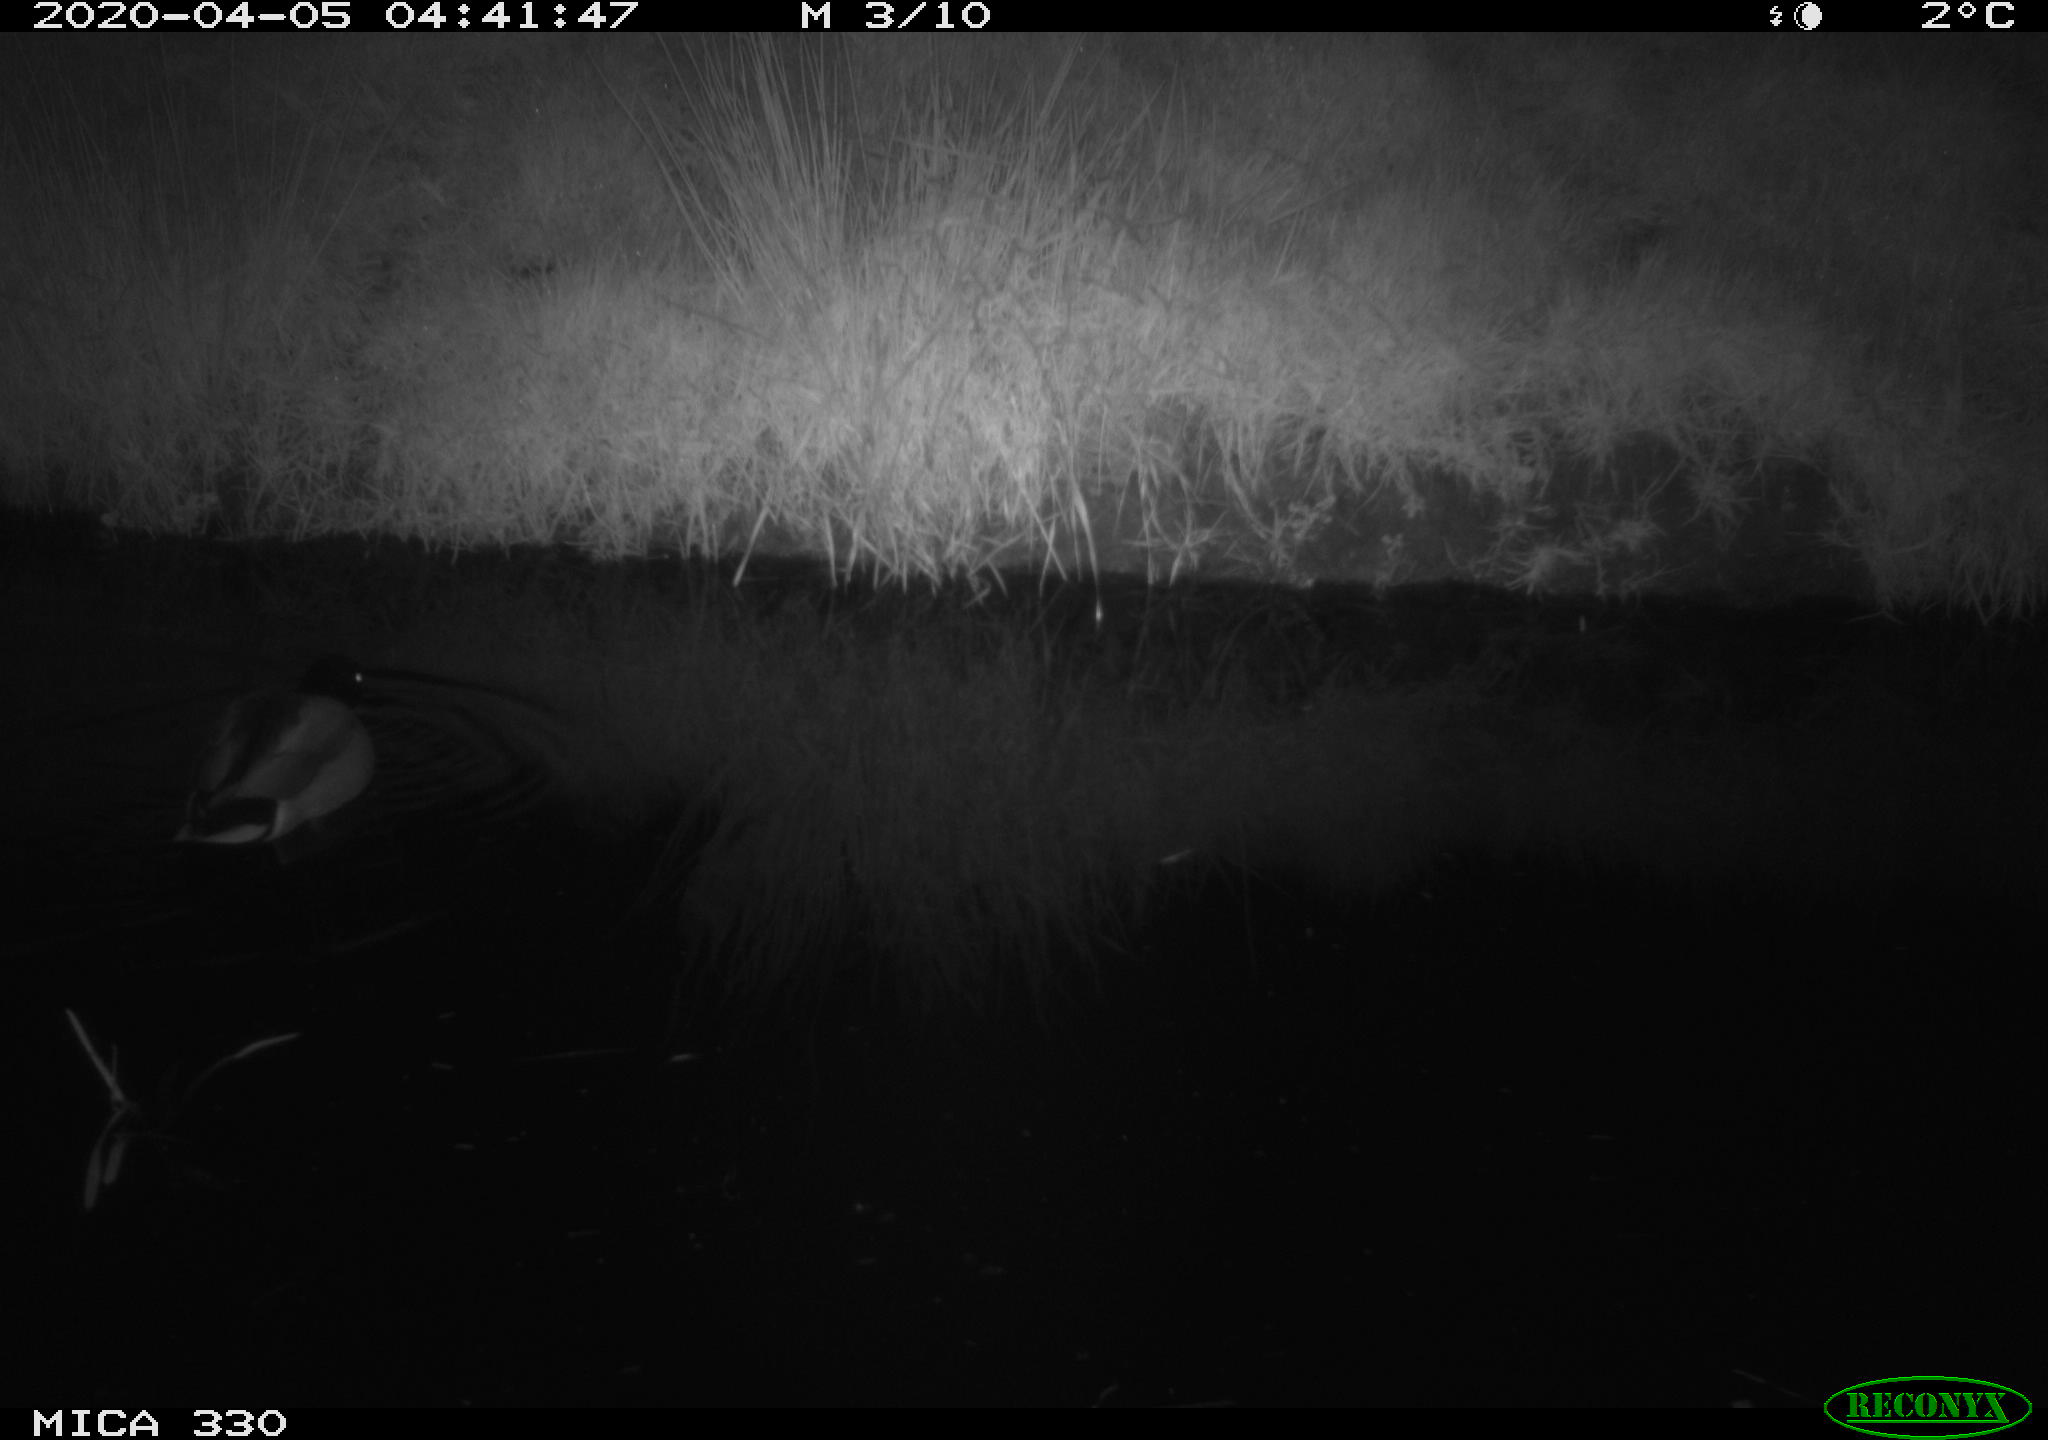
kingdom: Animalia
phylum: Chordata
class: Aves
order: Anseriformes
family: Anatidae
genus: Anas
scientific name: Anas platyrhynchos
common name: Mallard
